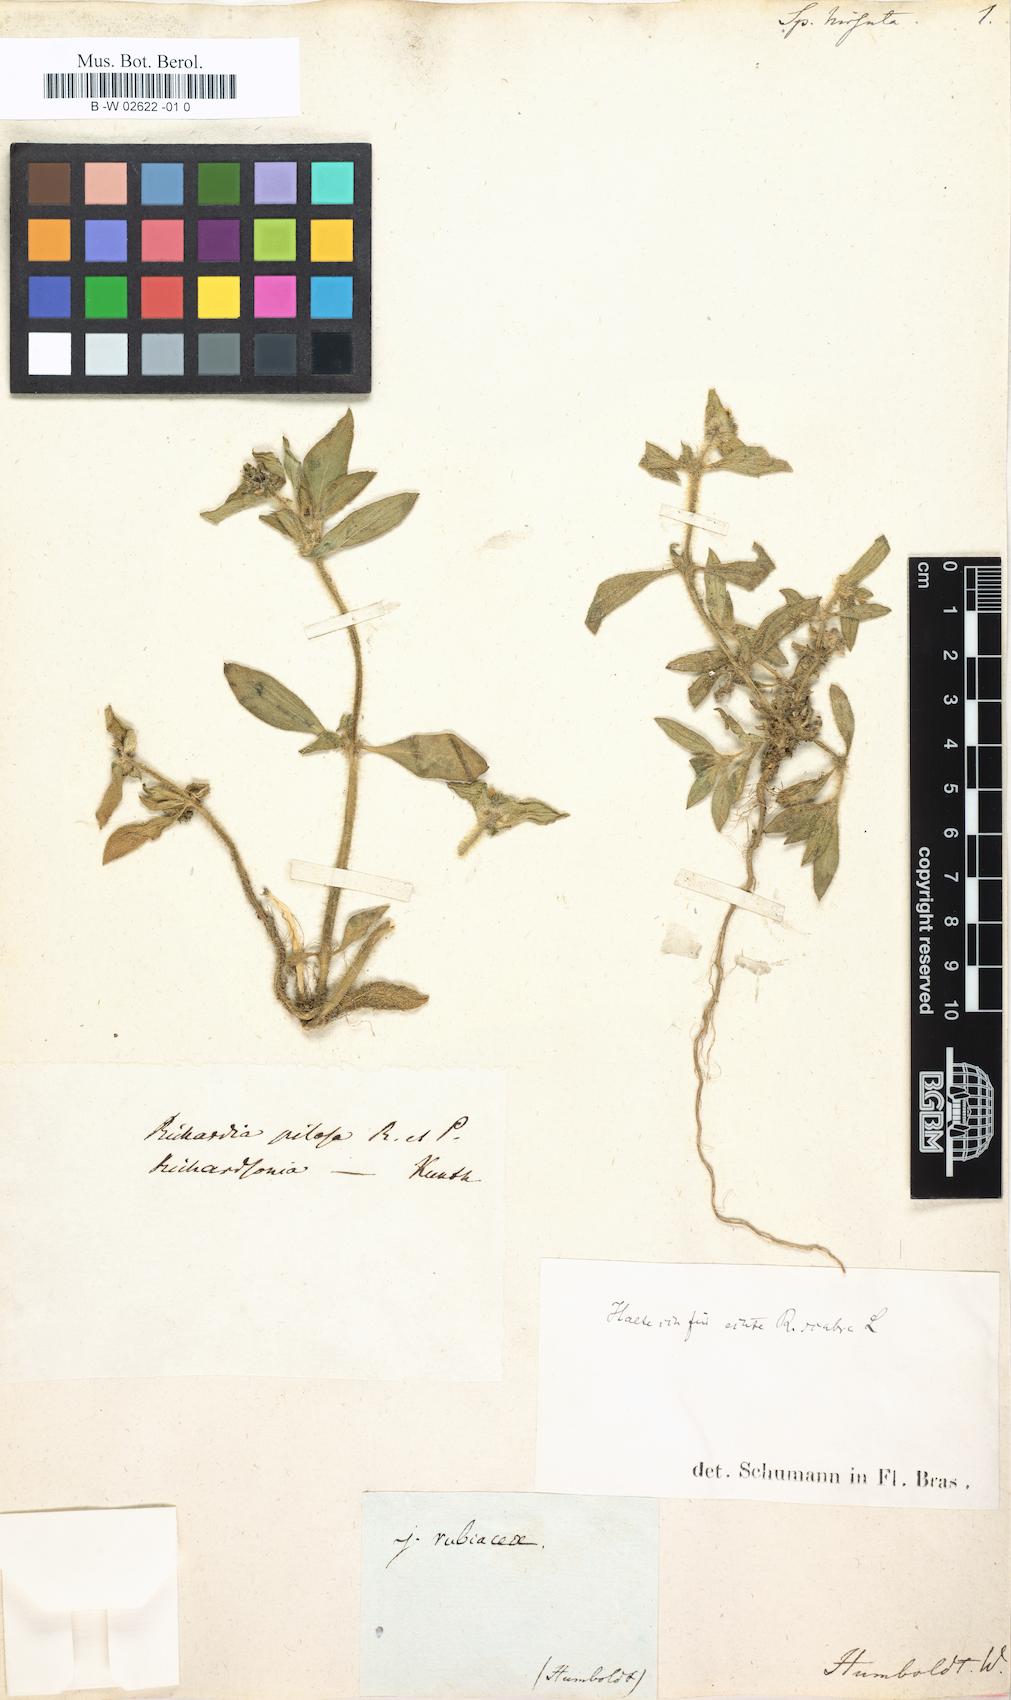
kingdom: Plantae
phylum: Tracheophyta
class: Magnoliopsida
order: Gentianales
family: Rubiaceae
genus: Richardia
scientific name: Richardia scabra
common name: Rough mexican clover
